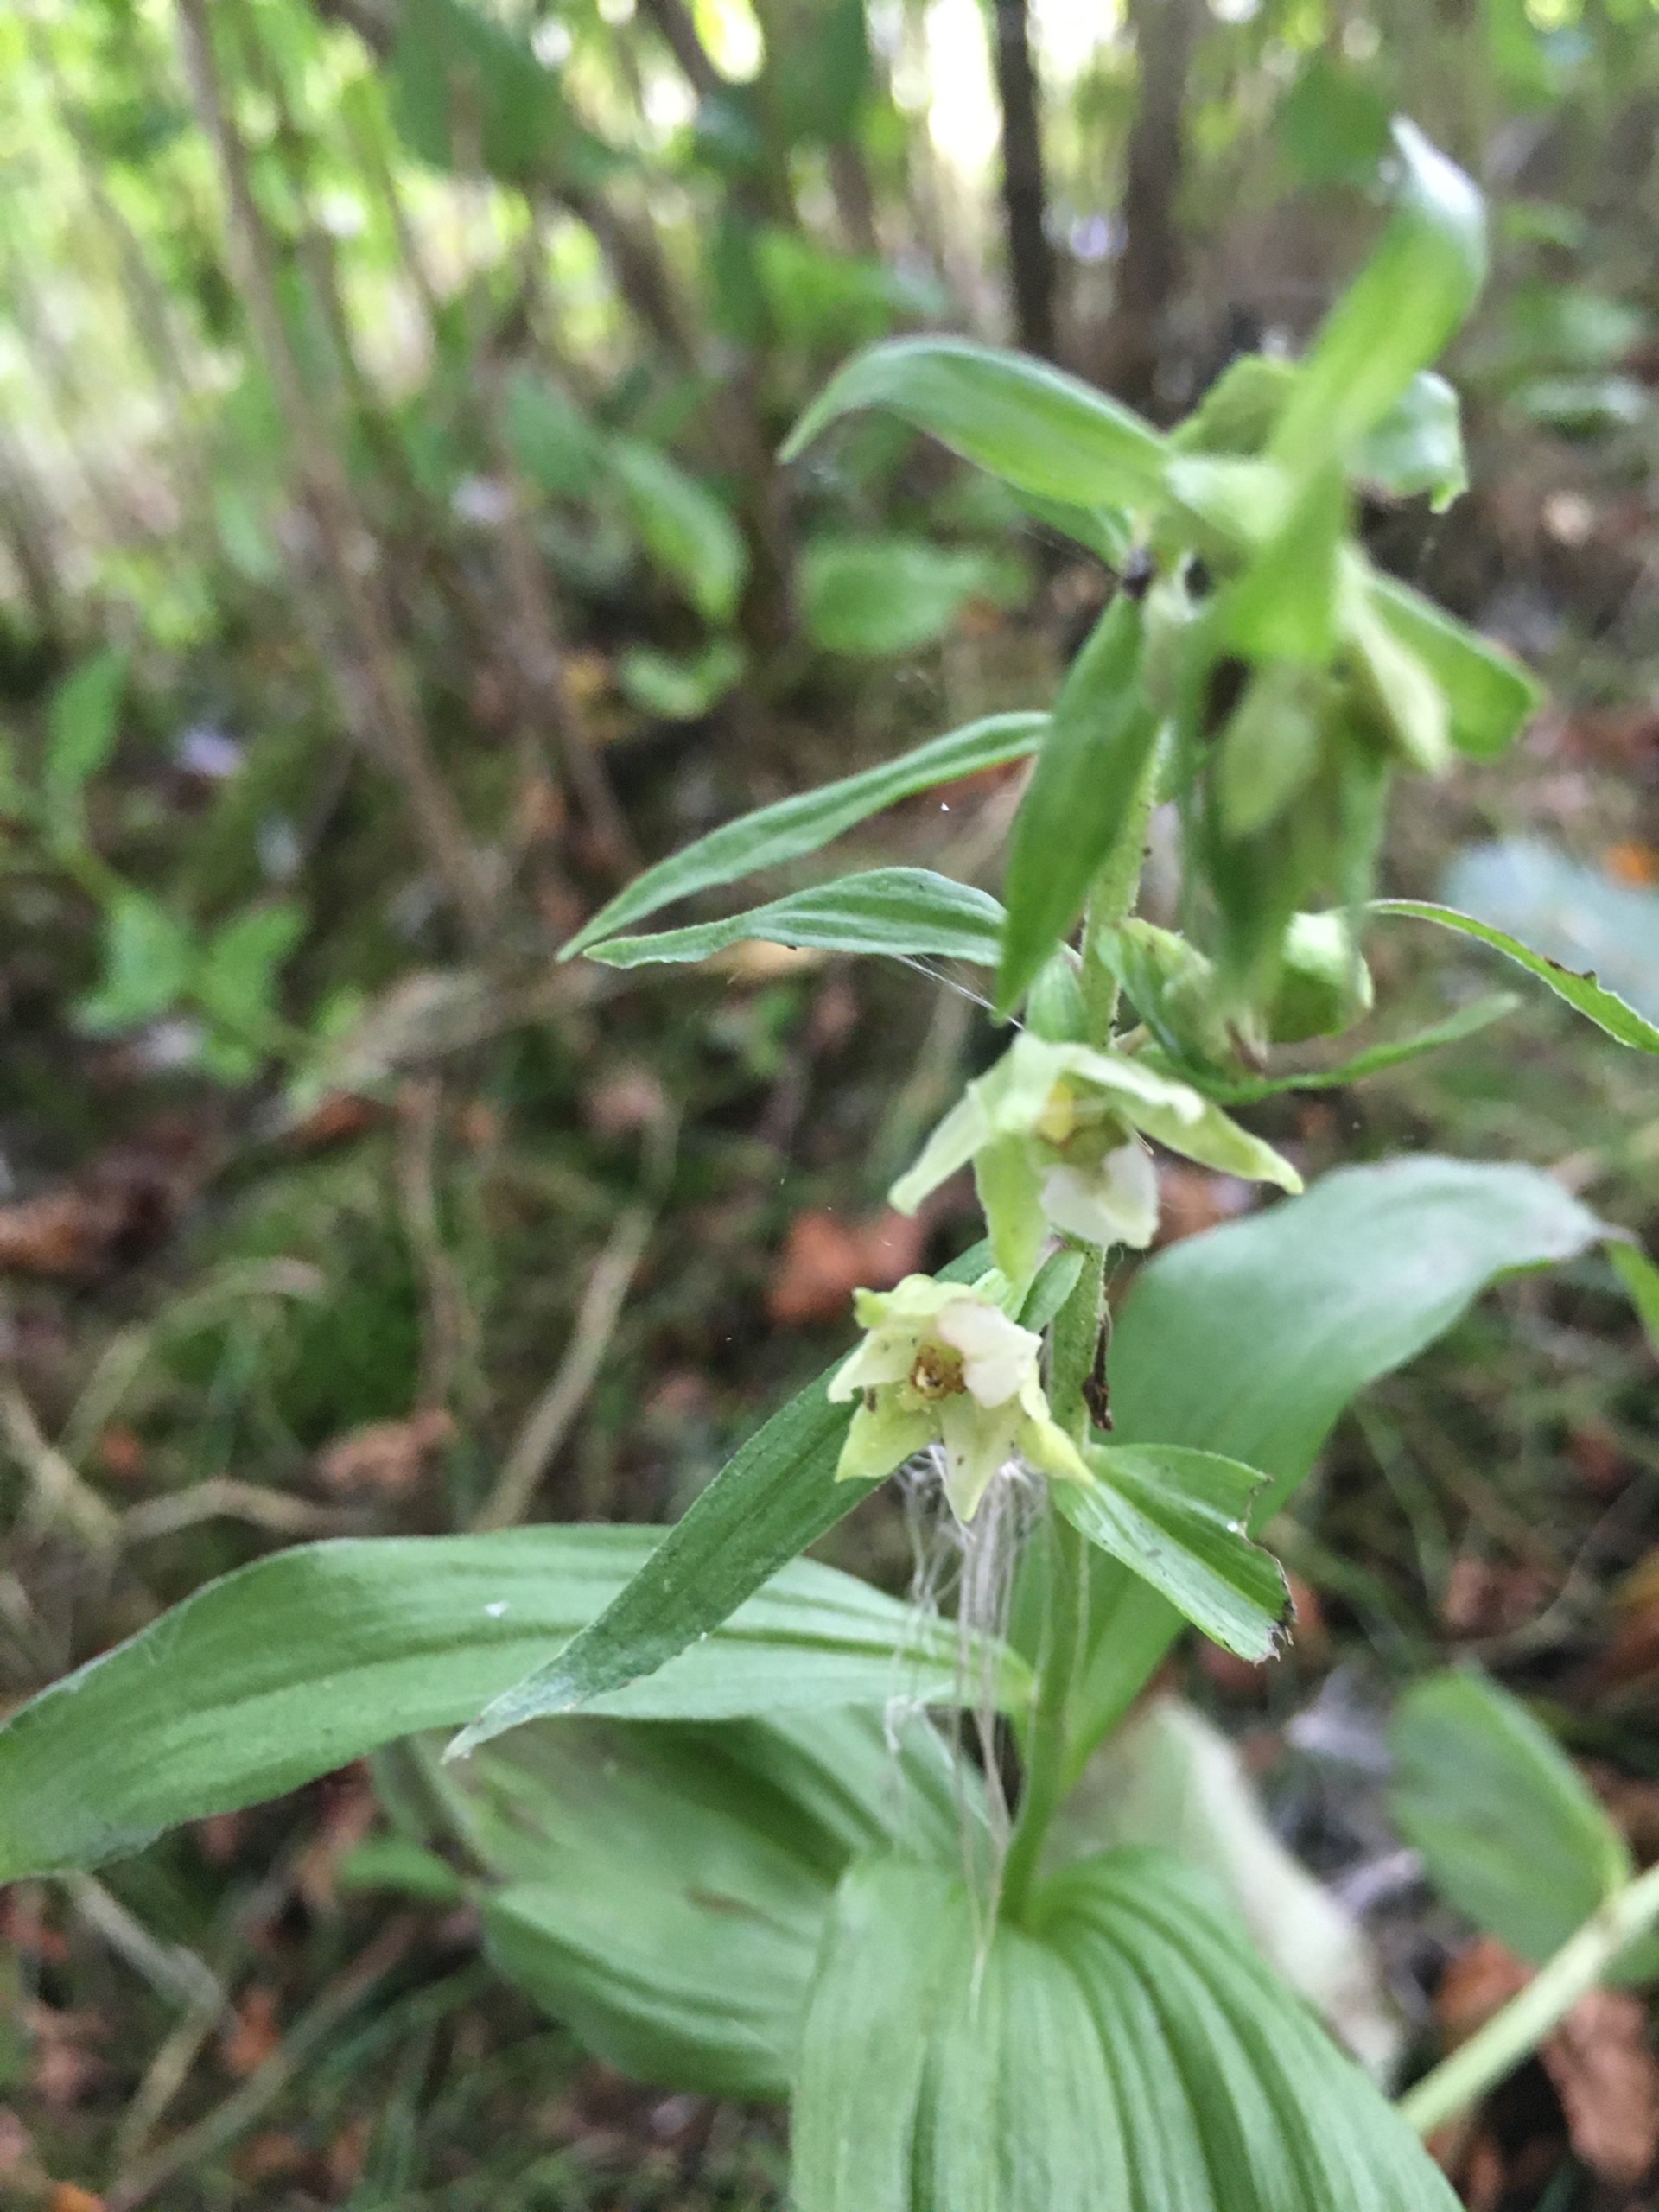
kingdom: Plantae
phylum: Tracheophyta
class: Liliopsida
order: Asparagales
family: Orchidaceae
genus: Epipactis
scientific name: Epipactis helleborine
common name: Skov-hullæbe
